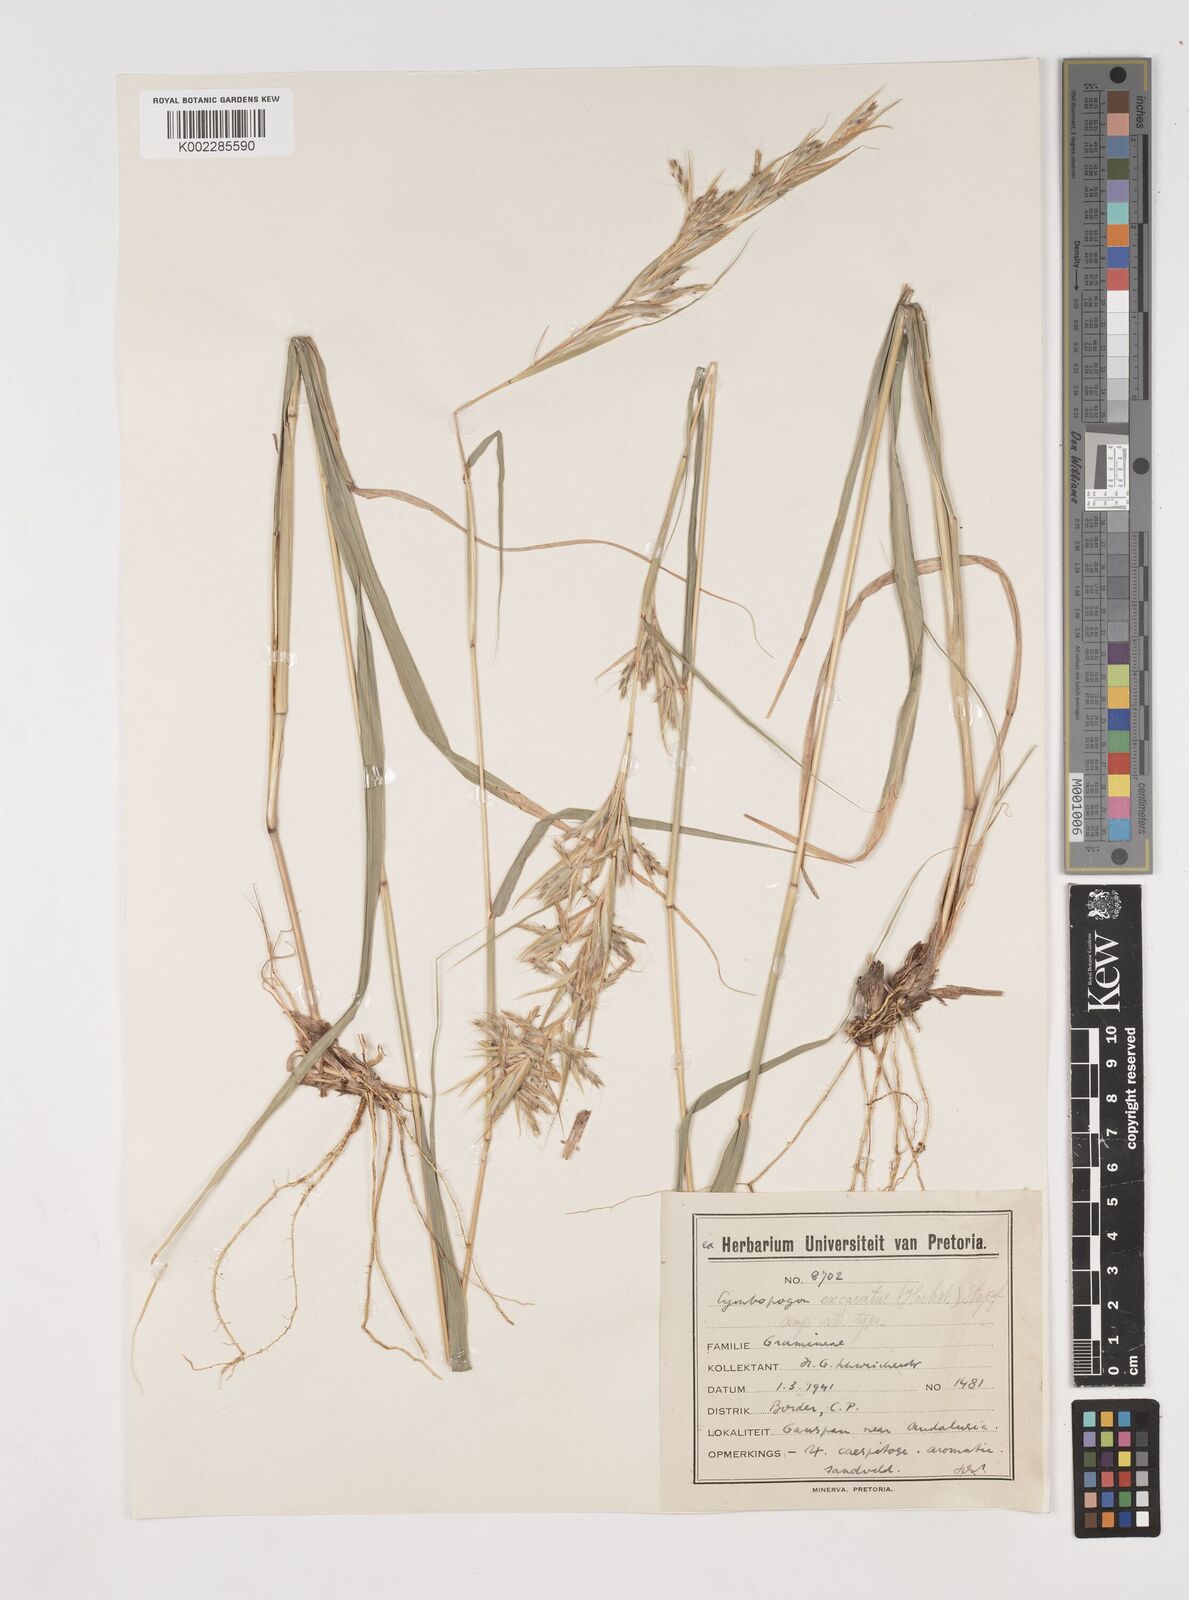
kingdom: Plantae
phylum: Tracheophyta
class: Liliopsida
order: Poales
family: Poaceae
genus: Cymbopogon
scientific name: Cymbopogon caesius
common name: Kachi grass
